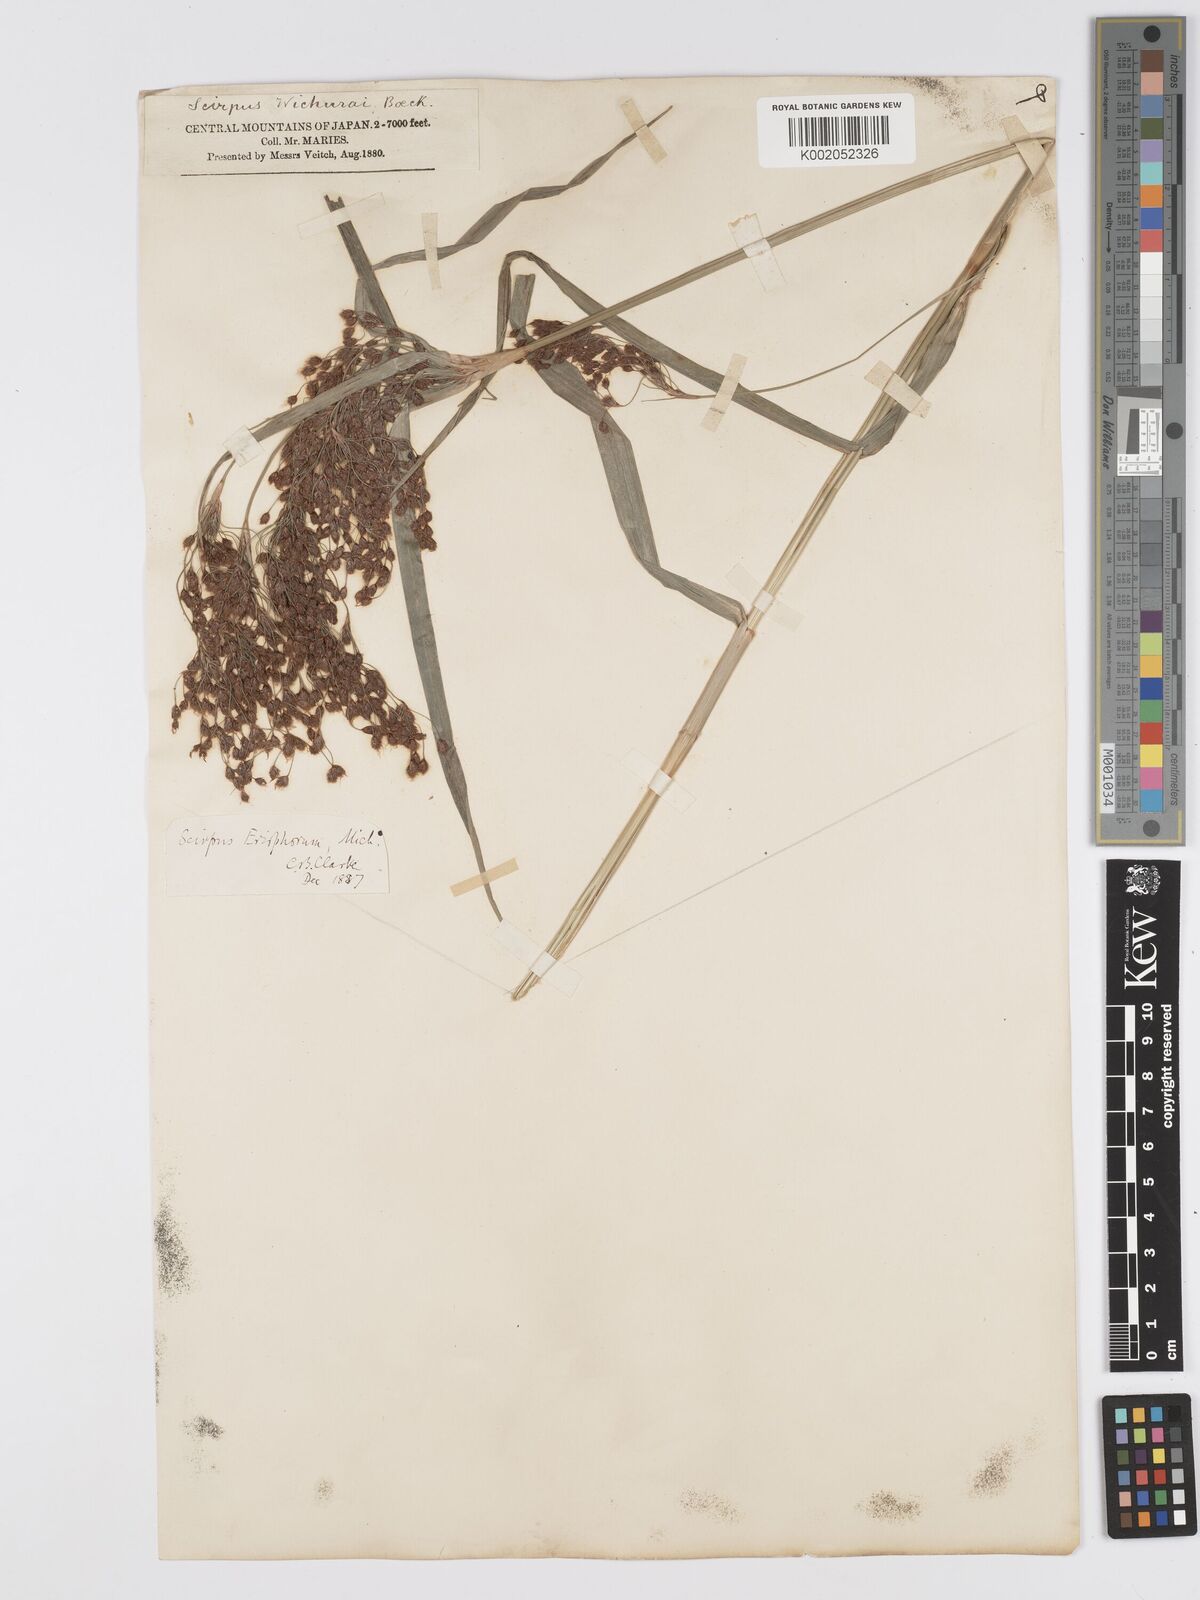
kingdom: Plantae
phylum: Tracheophyta
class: Liliopsida
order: Poales
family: Cyperaceae
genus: Scirpus
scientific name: Scirpus cyperinus
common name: Black-sheathed bulrush
